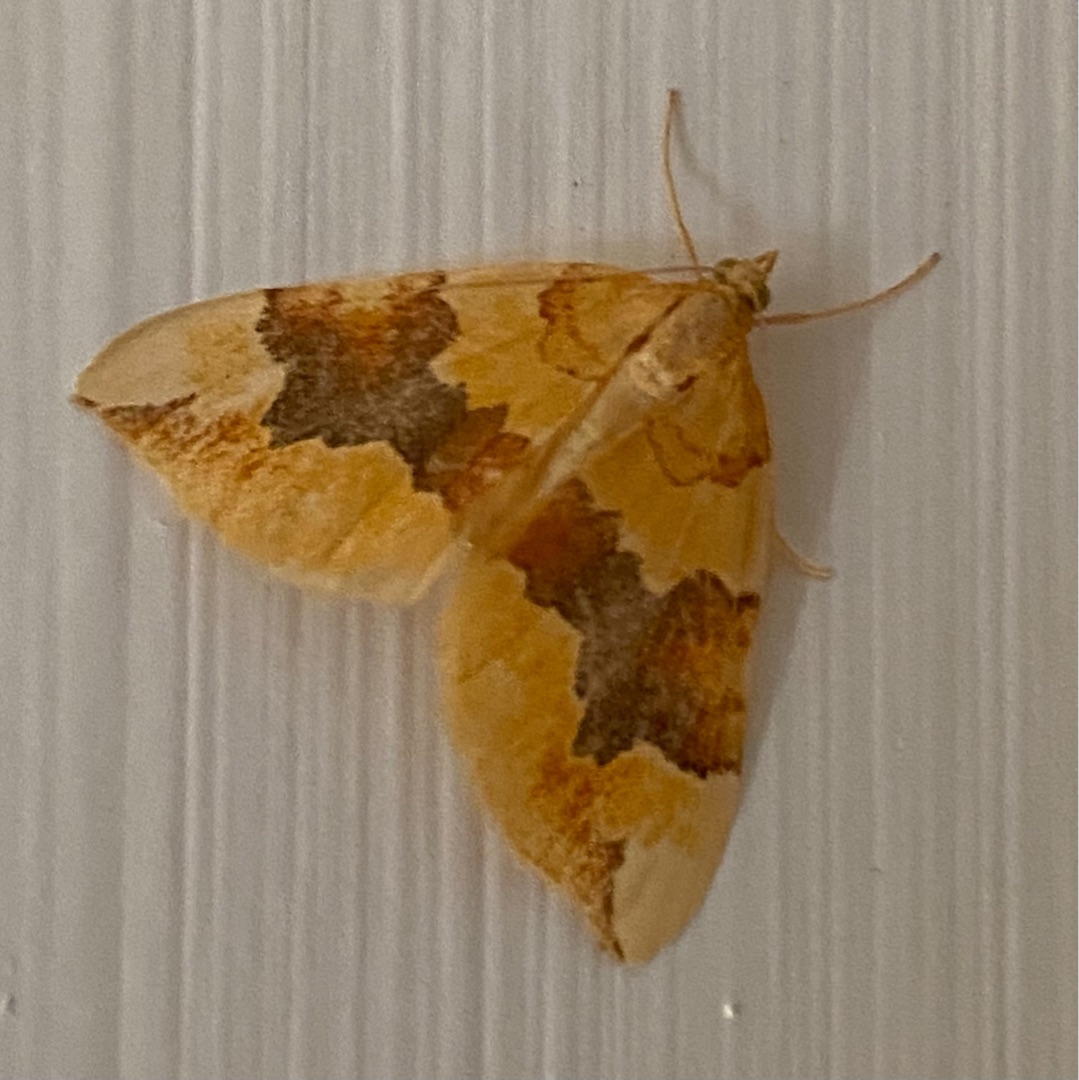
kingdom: Animalia
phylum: Arthropoda
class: Insecta
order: Lepidoptera
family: Geometridae
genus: Cidaria
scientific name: Cidaria fulvata
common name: Gul bladmåler
